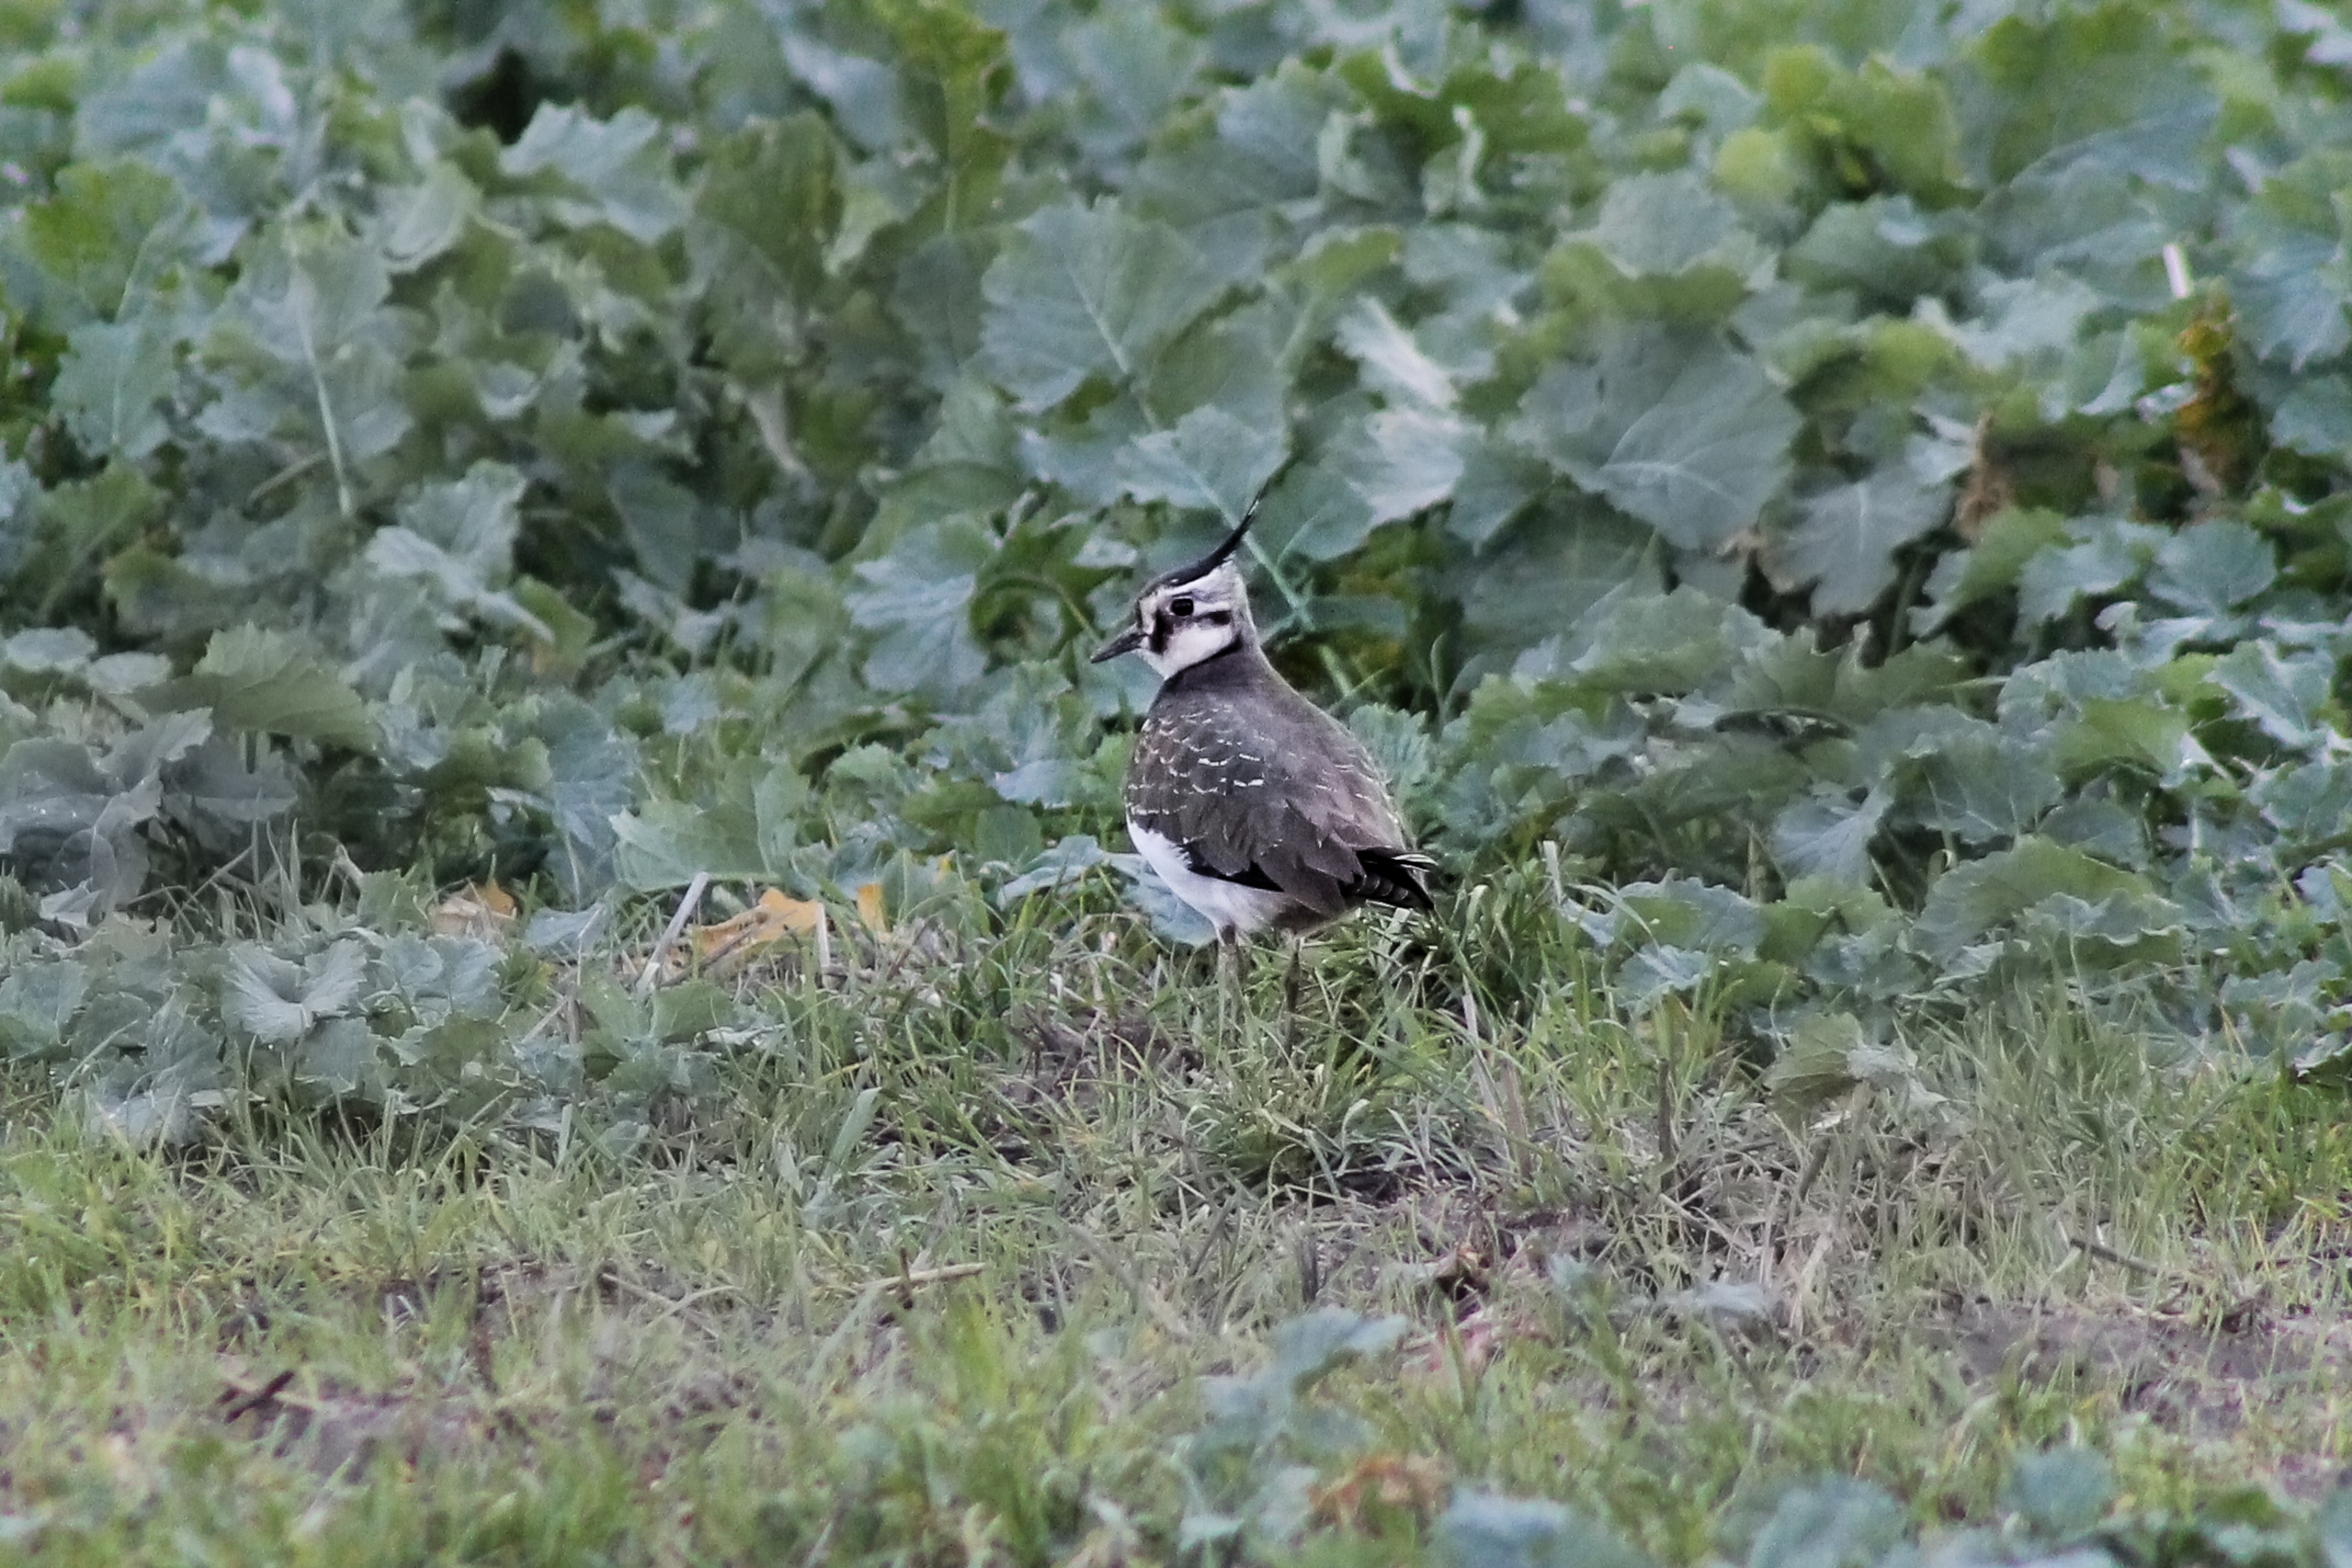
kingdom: Animalia
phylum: Chordata
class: Aves
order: Charadriiformes
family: Charadriidae
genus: Vanellus
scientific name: Vanellus vanellus
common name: Vibe
